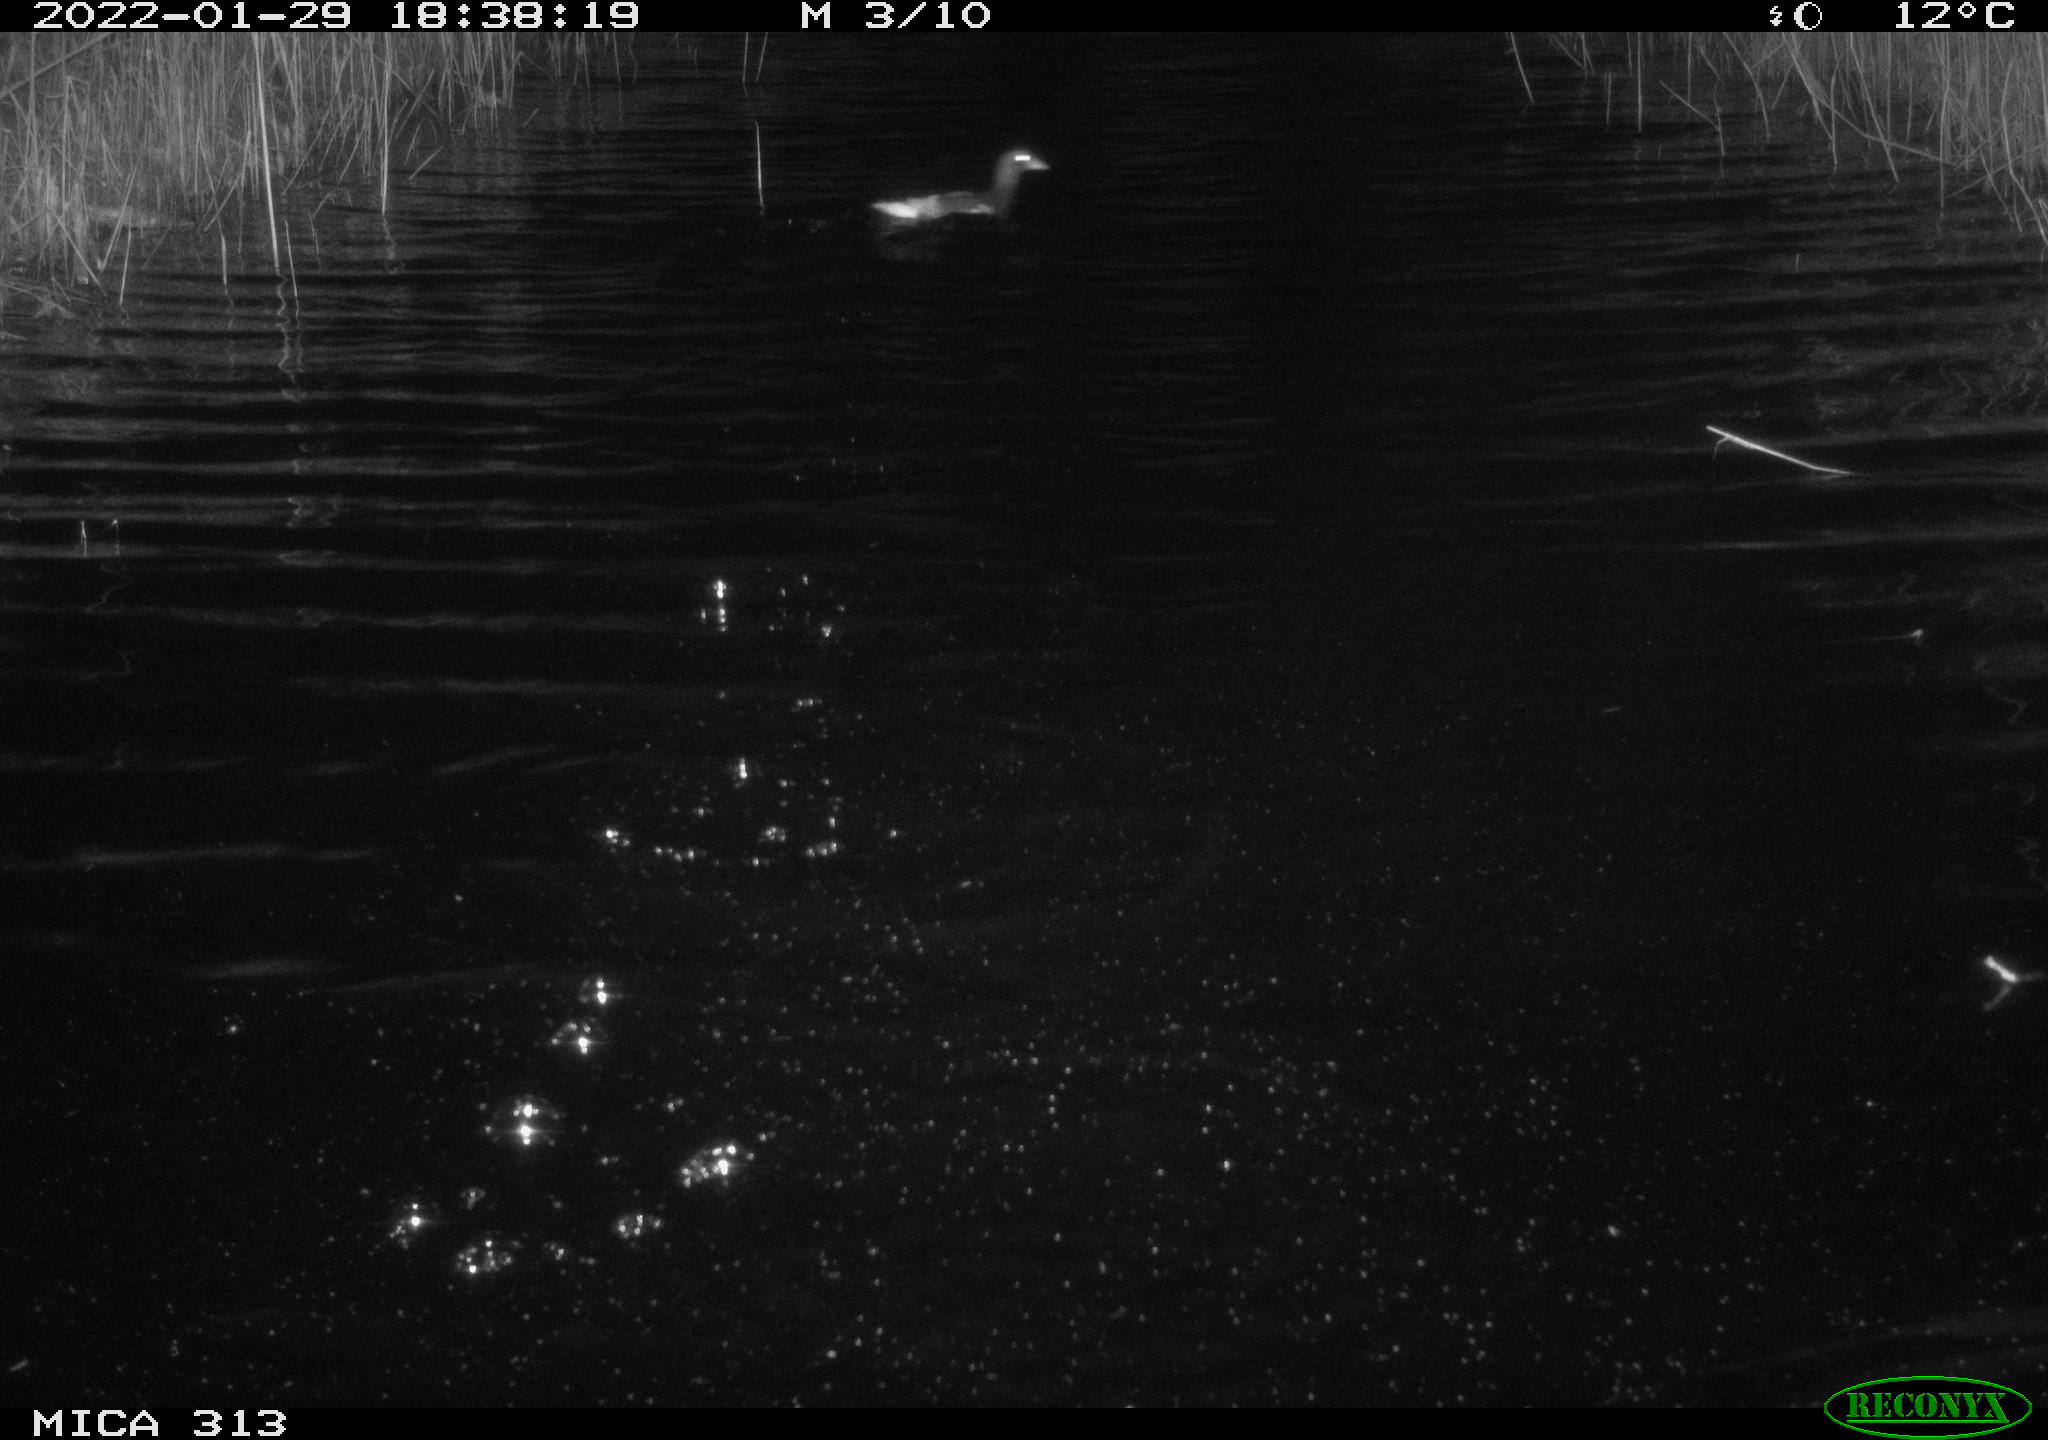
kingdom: Animalia
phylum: Chordata
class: Aves
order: Gruiformes
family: Rallidae
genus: Gallinula
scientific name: Gallinula chloropus
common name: Common moorhen
